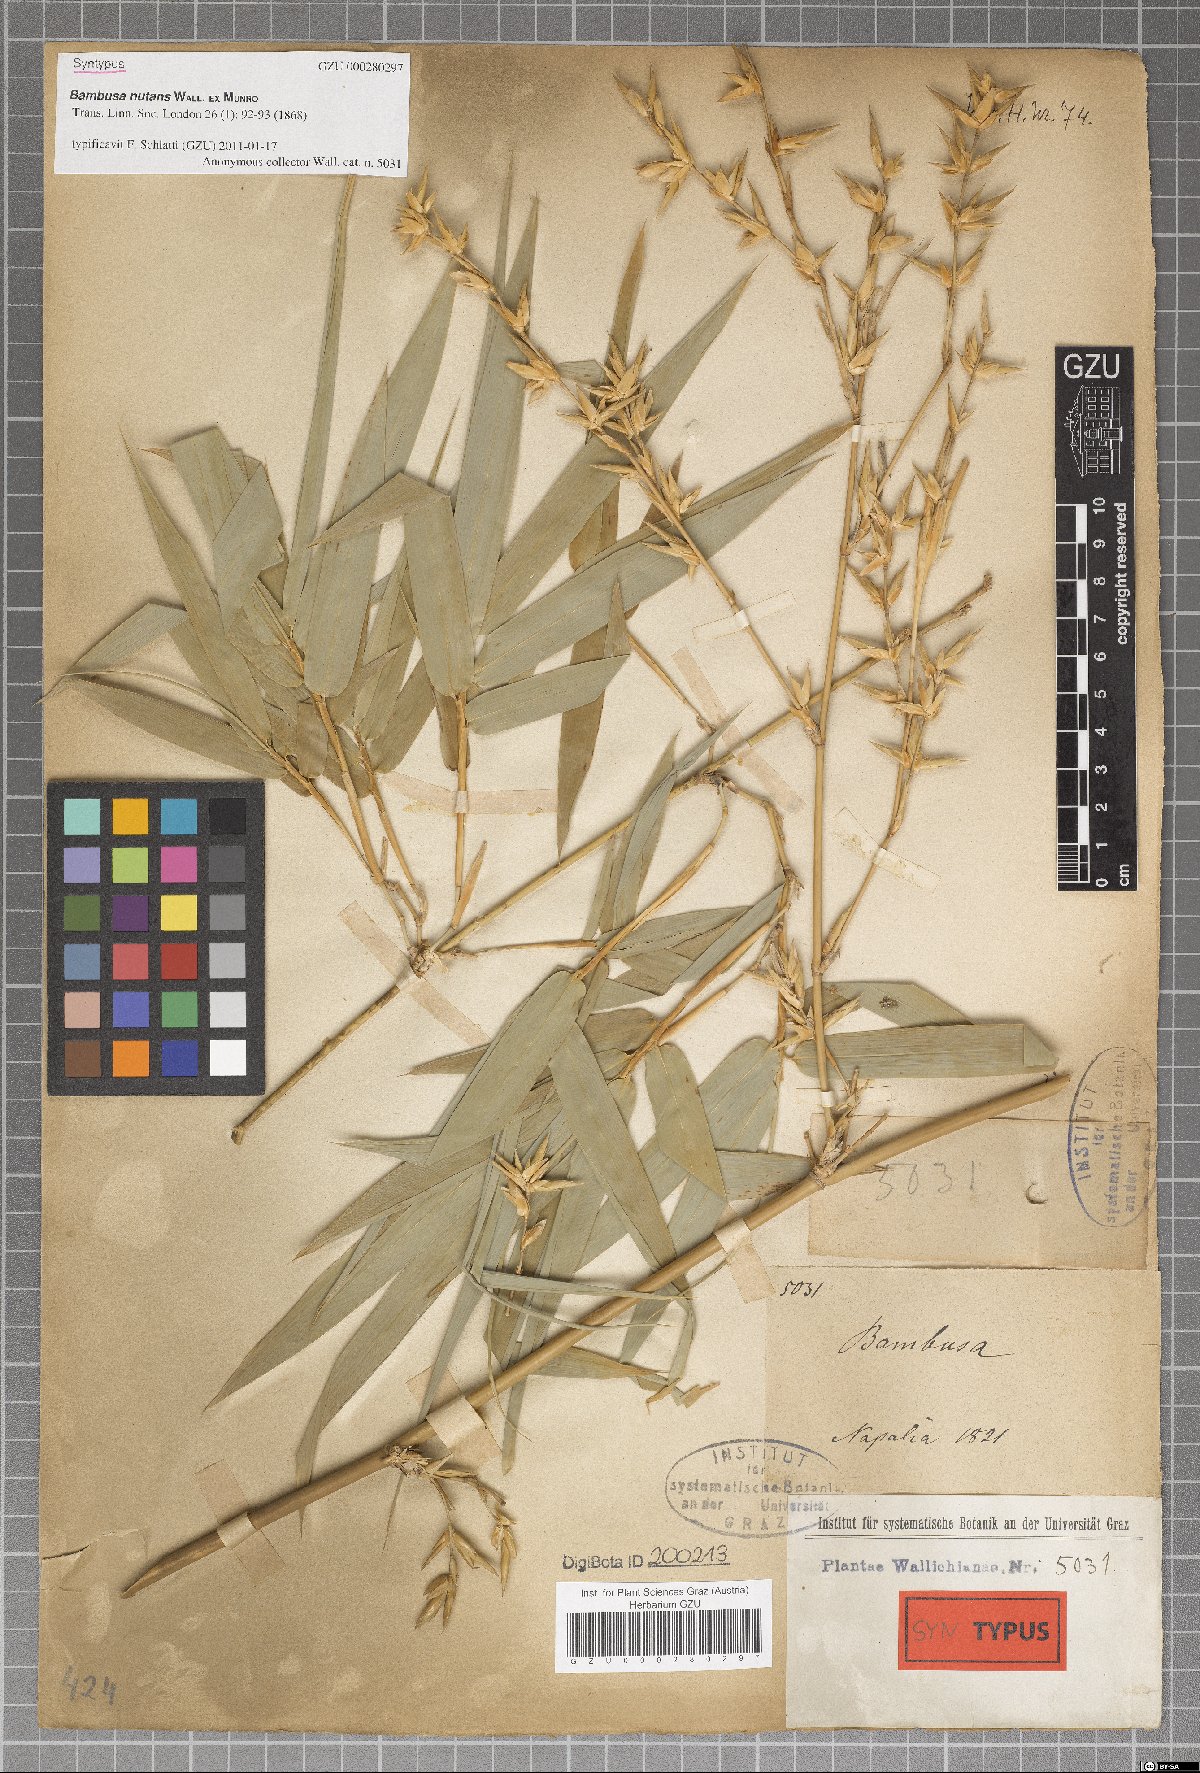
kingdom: Plantae
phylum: Tracheophyta
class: Liliopsida
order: Poales
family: Poaceae
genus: Bambusa
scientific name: Bambusa nutans
